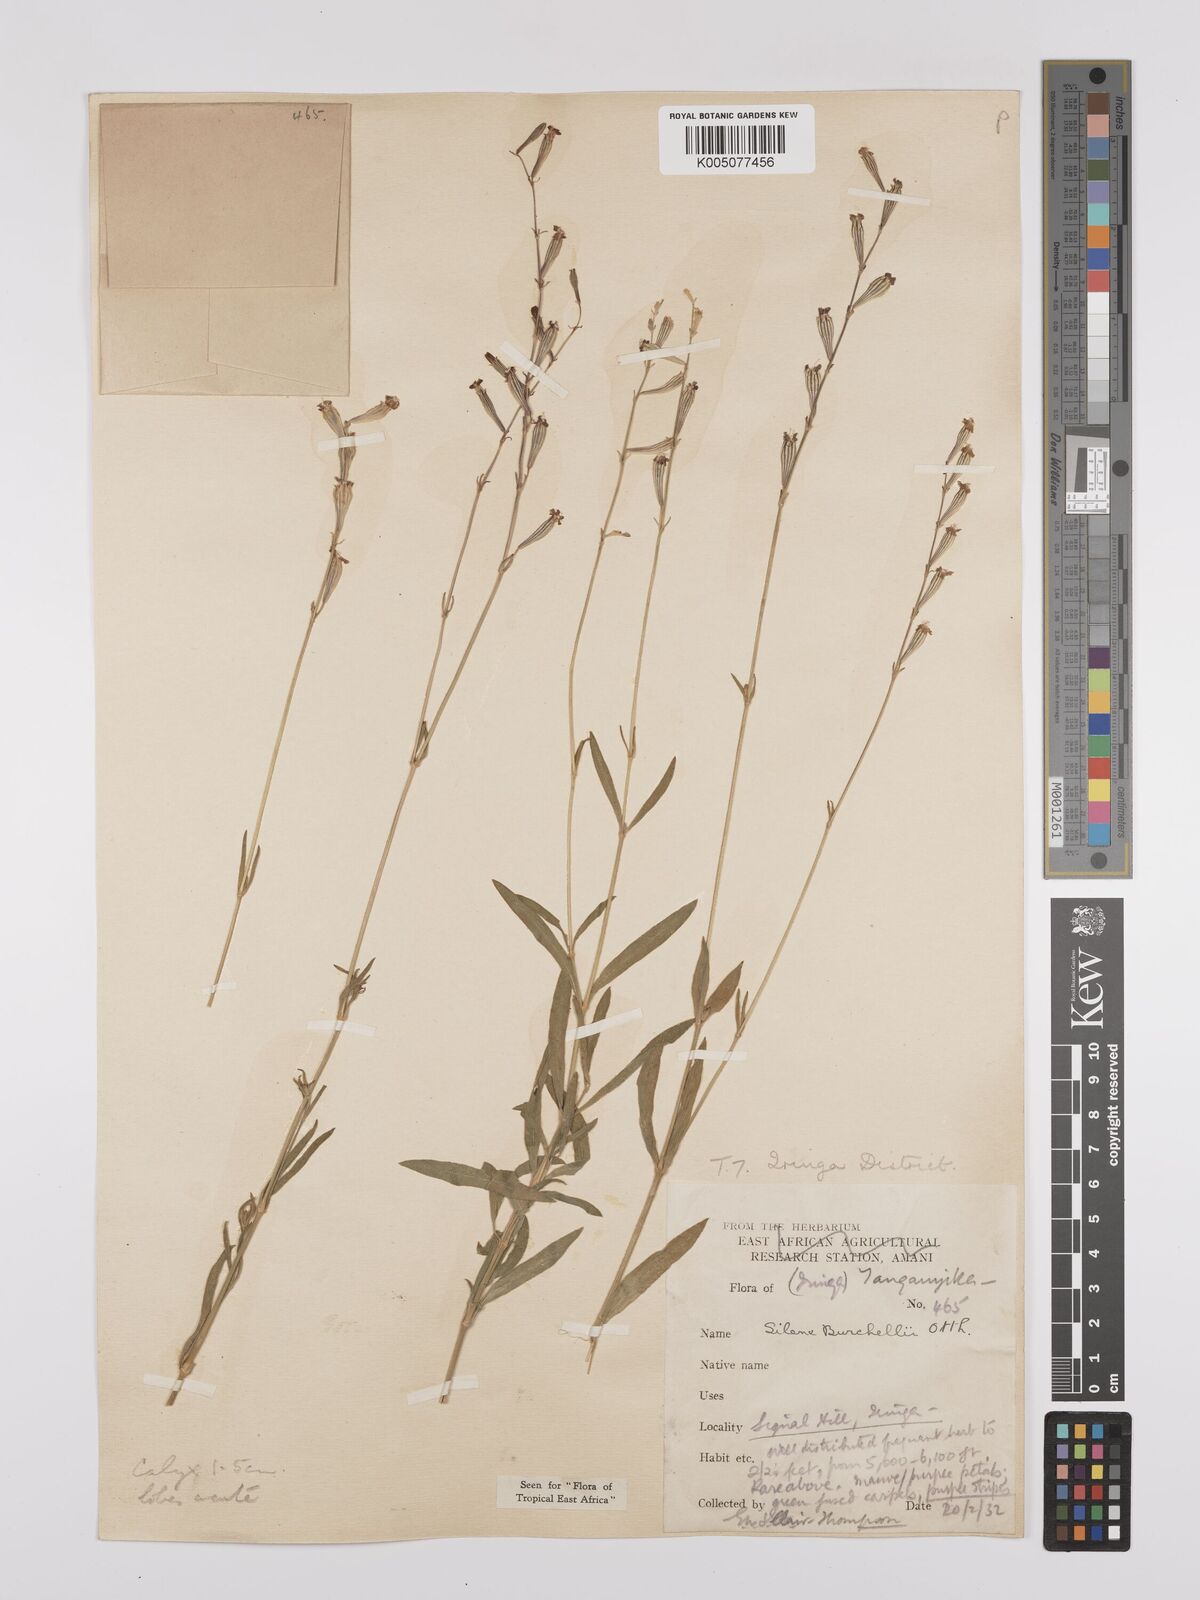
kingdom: Plantae
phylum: Tracheophyta
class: Magnoliopsida
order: Caryophyllales
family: Caryophyllaceae
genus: Silene
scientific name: Silene burchellii
